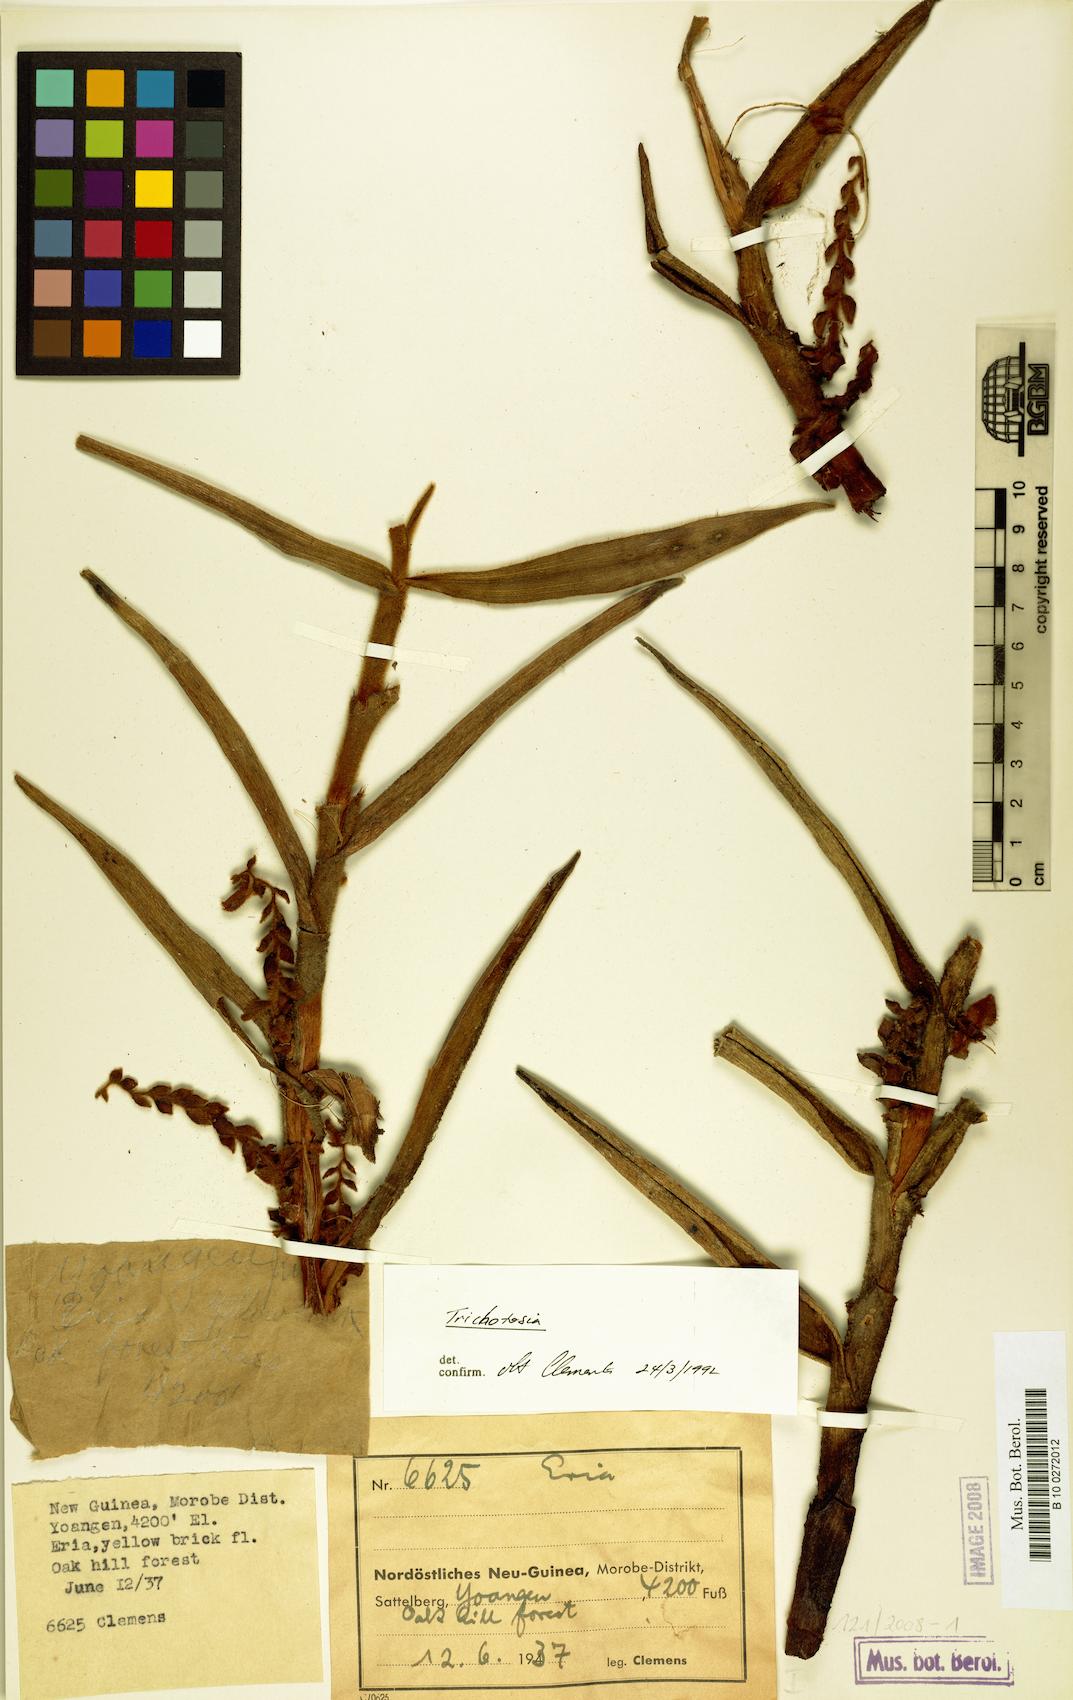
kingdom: Plantae
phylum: Tracheophyta
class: Liliopsida
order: Asparagales
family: Orchidaceae
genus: Trichotosia
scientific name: Trichotosia
